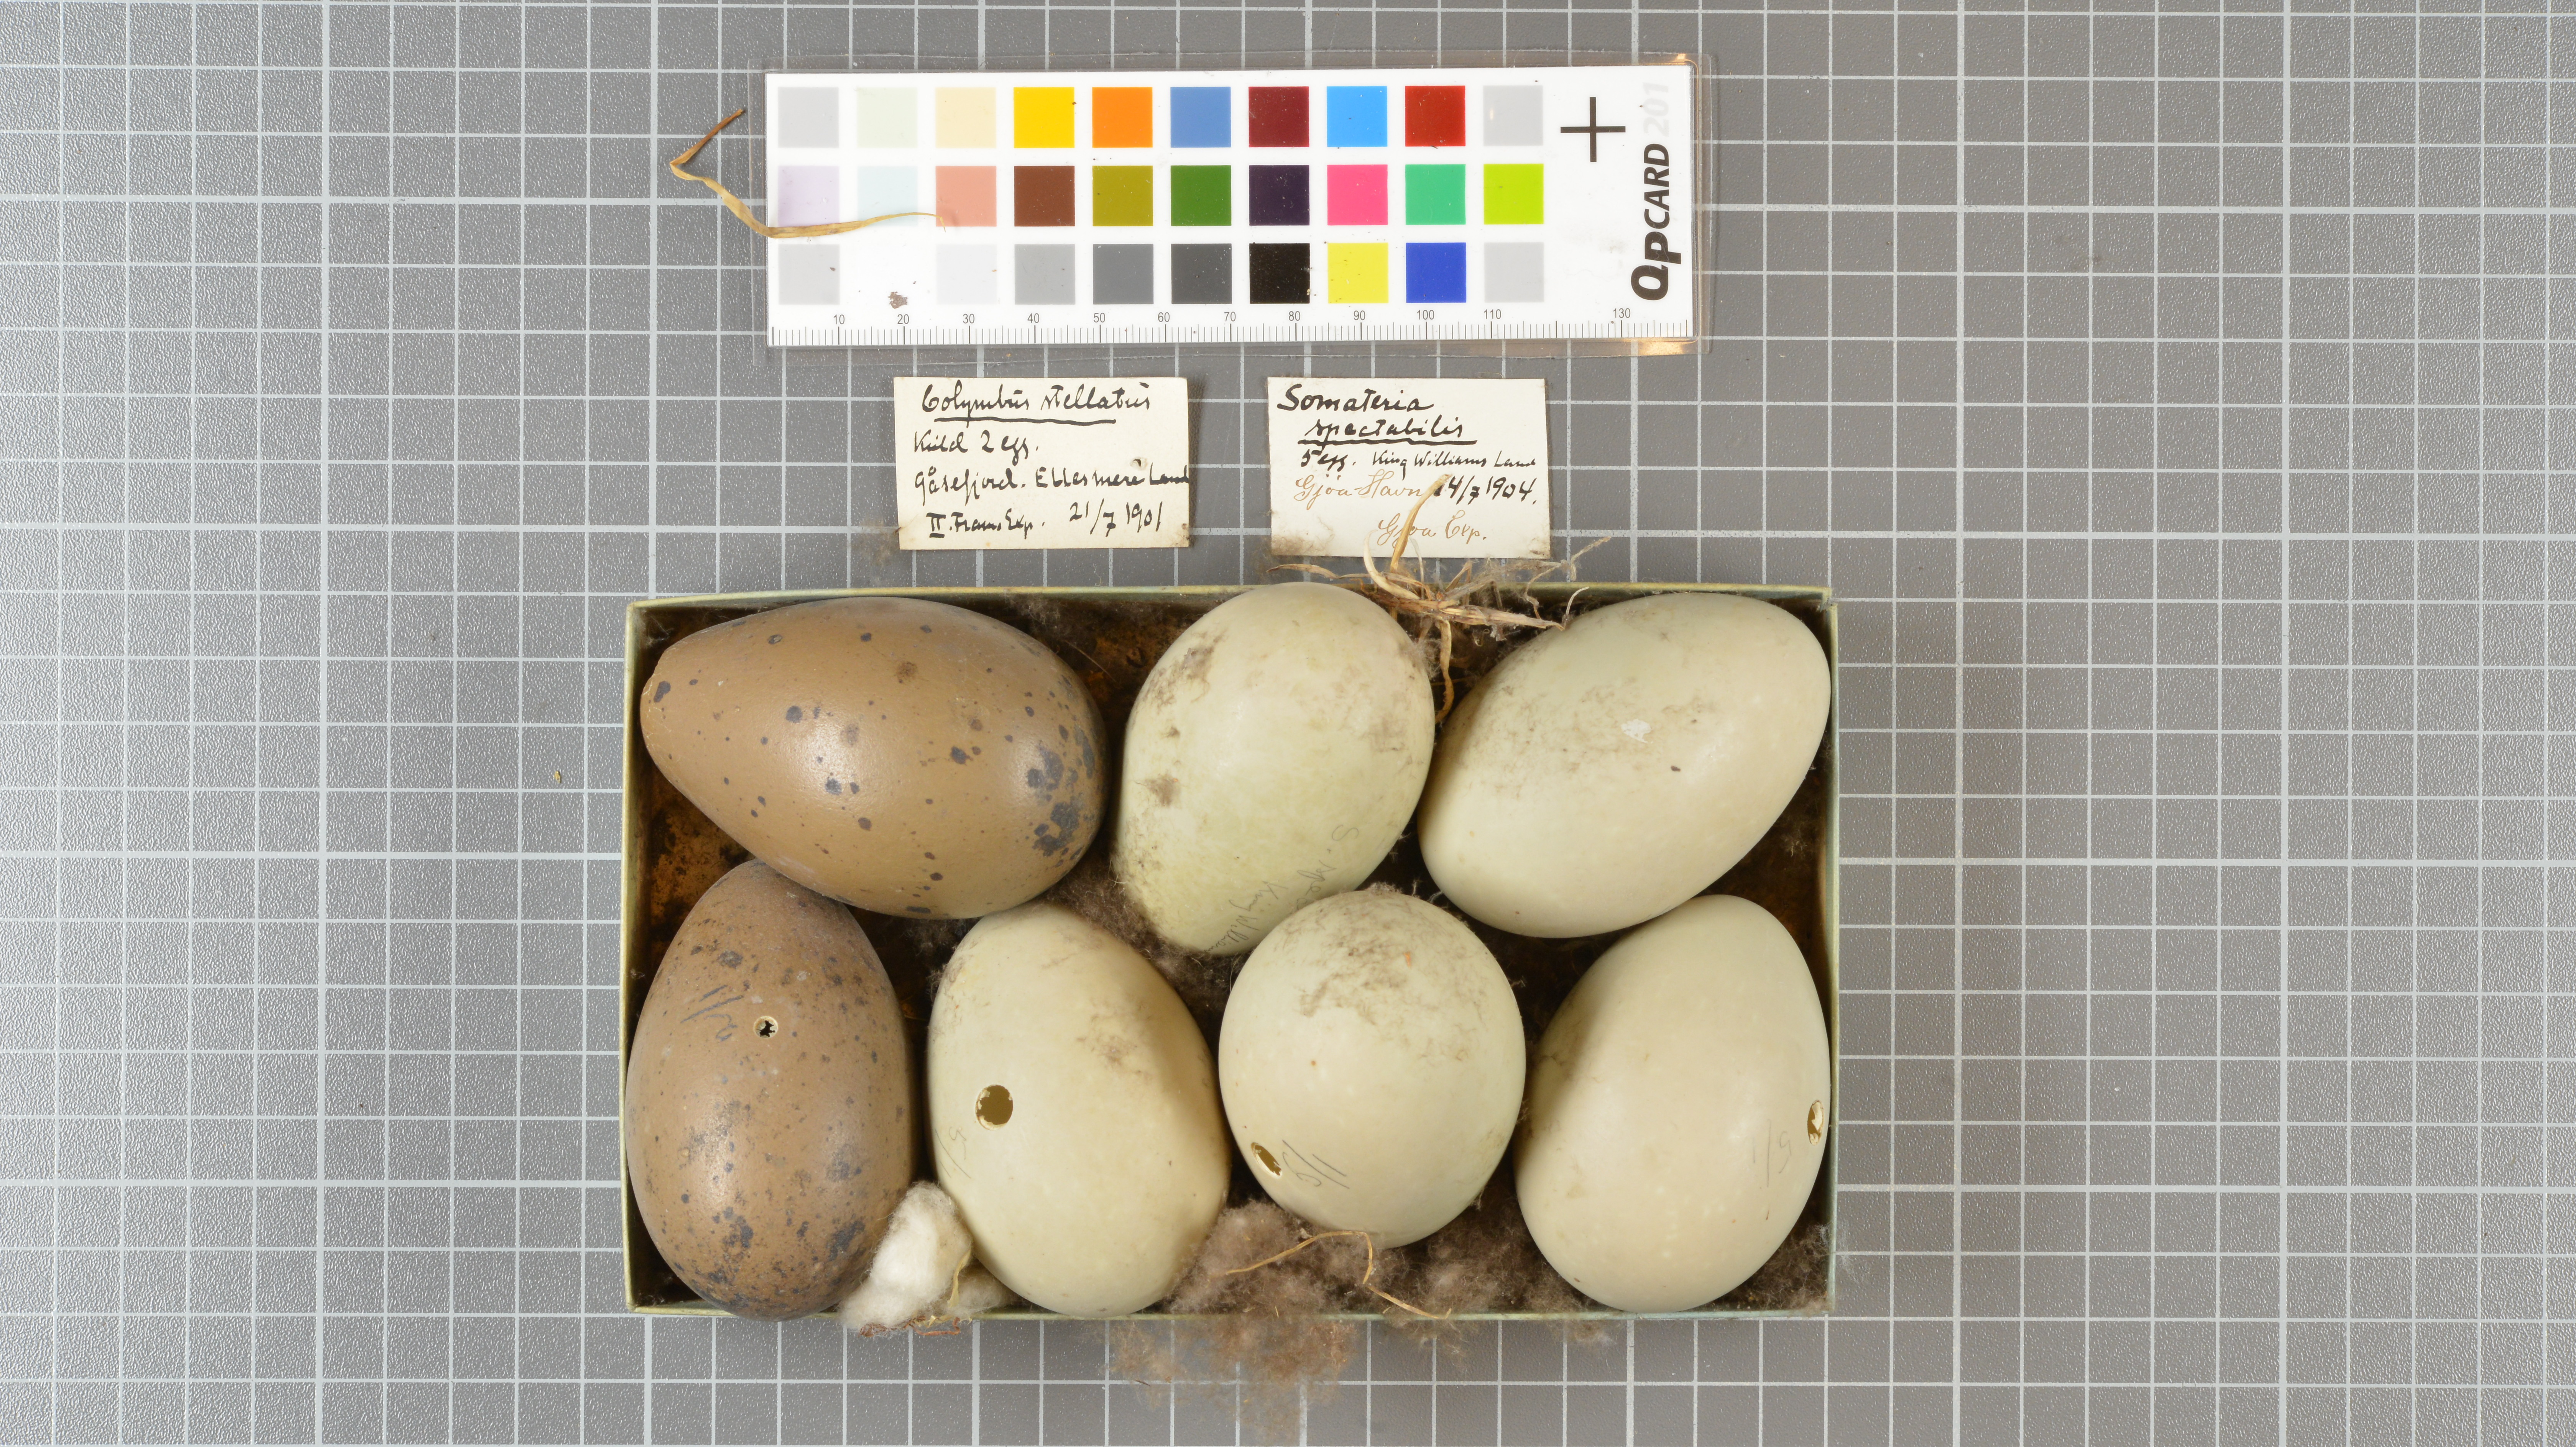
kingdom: Animalia
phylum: Chordata
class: Aves
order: Anseriformes
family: Anatidae
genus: Somateria
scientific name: Somateria spectabilis
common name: King eider
